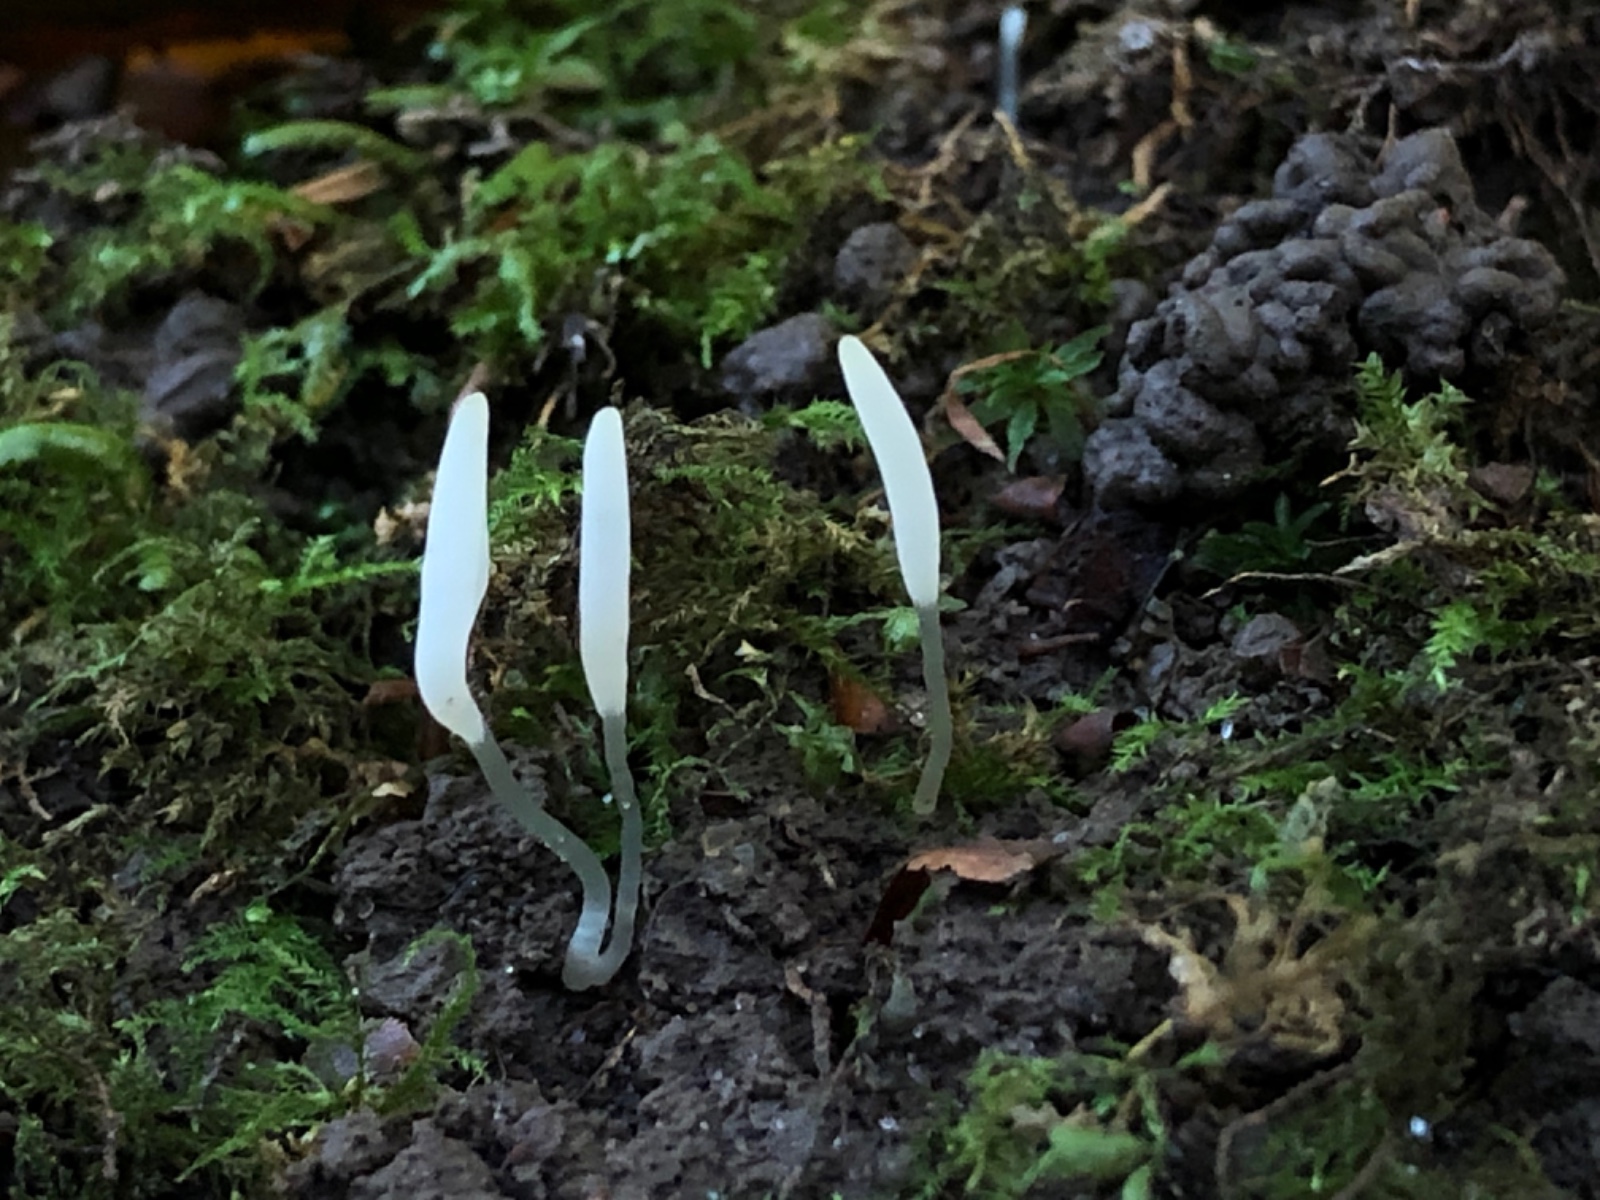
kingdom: Fungi
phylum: Basidiomycota
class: Agaricomycetes
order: Agaricales
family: Clavariaceae
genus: Clavaria
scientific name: Clavaria falcata
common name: hvid køllesvamp
